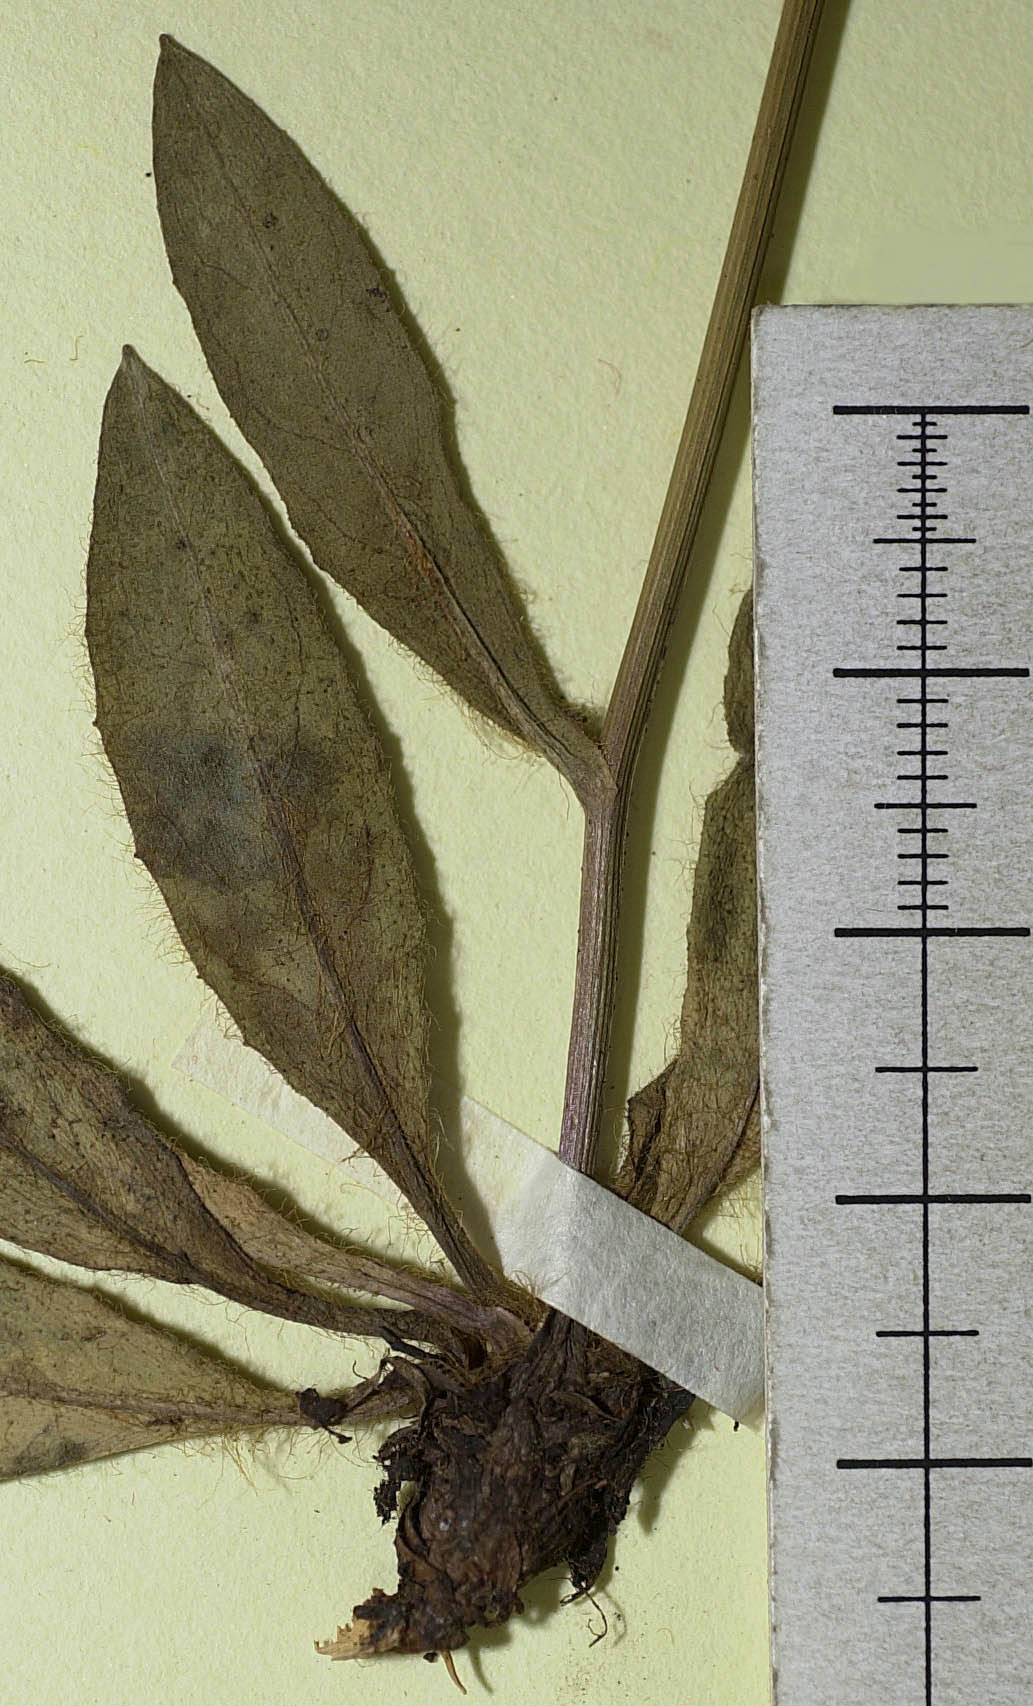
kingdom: Plantae
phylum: Tracheophyta
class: Magnoliopsida
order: Asterales
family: Asteraceae
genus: Hieracium
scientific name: Hieracium subspeciosum
